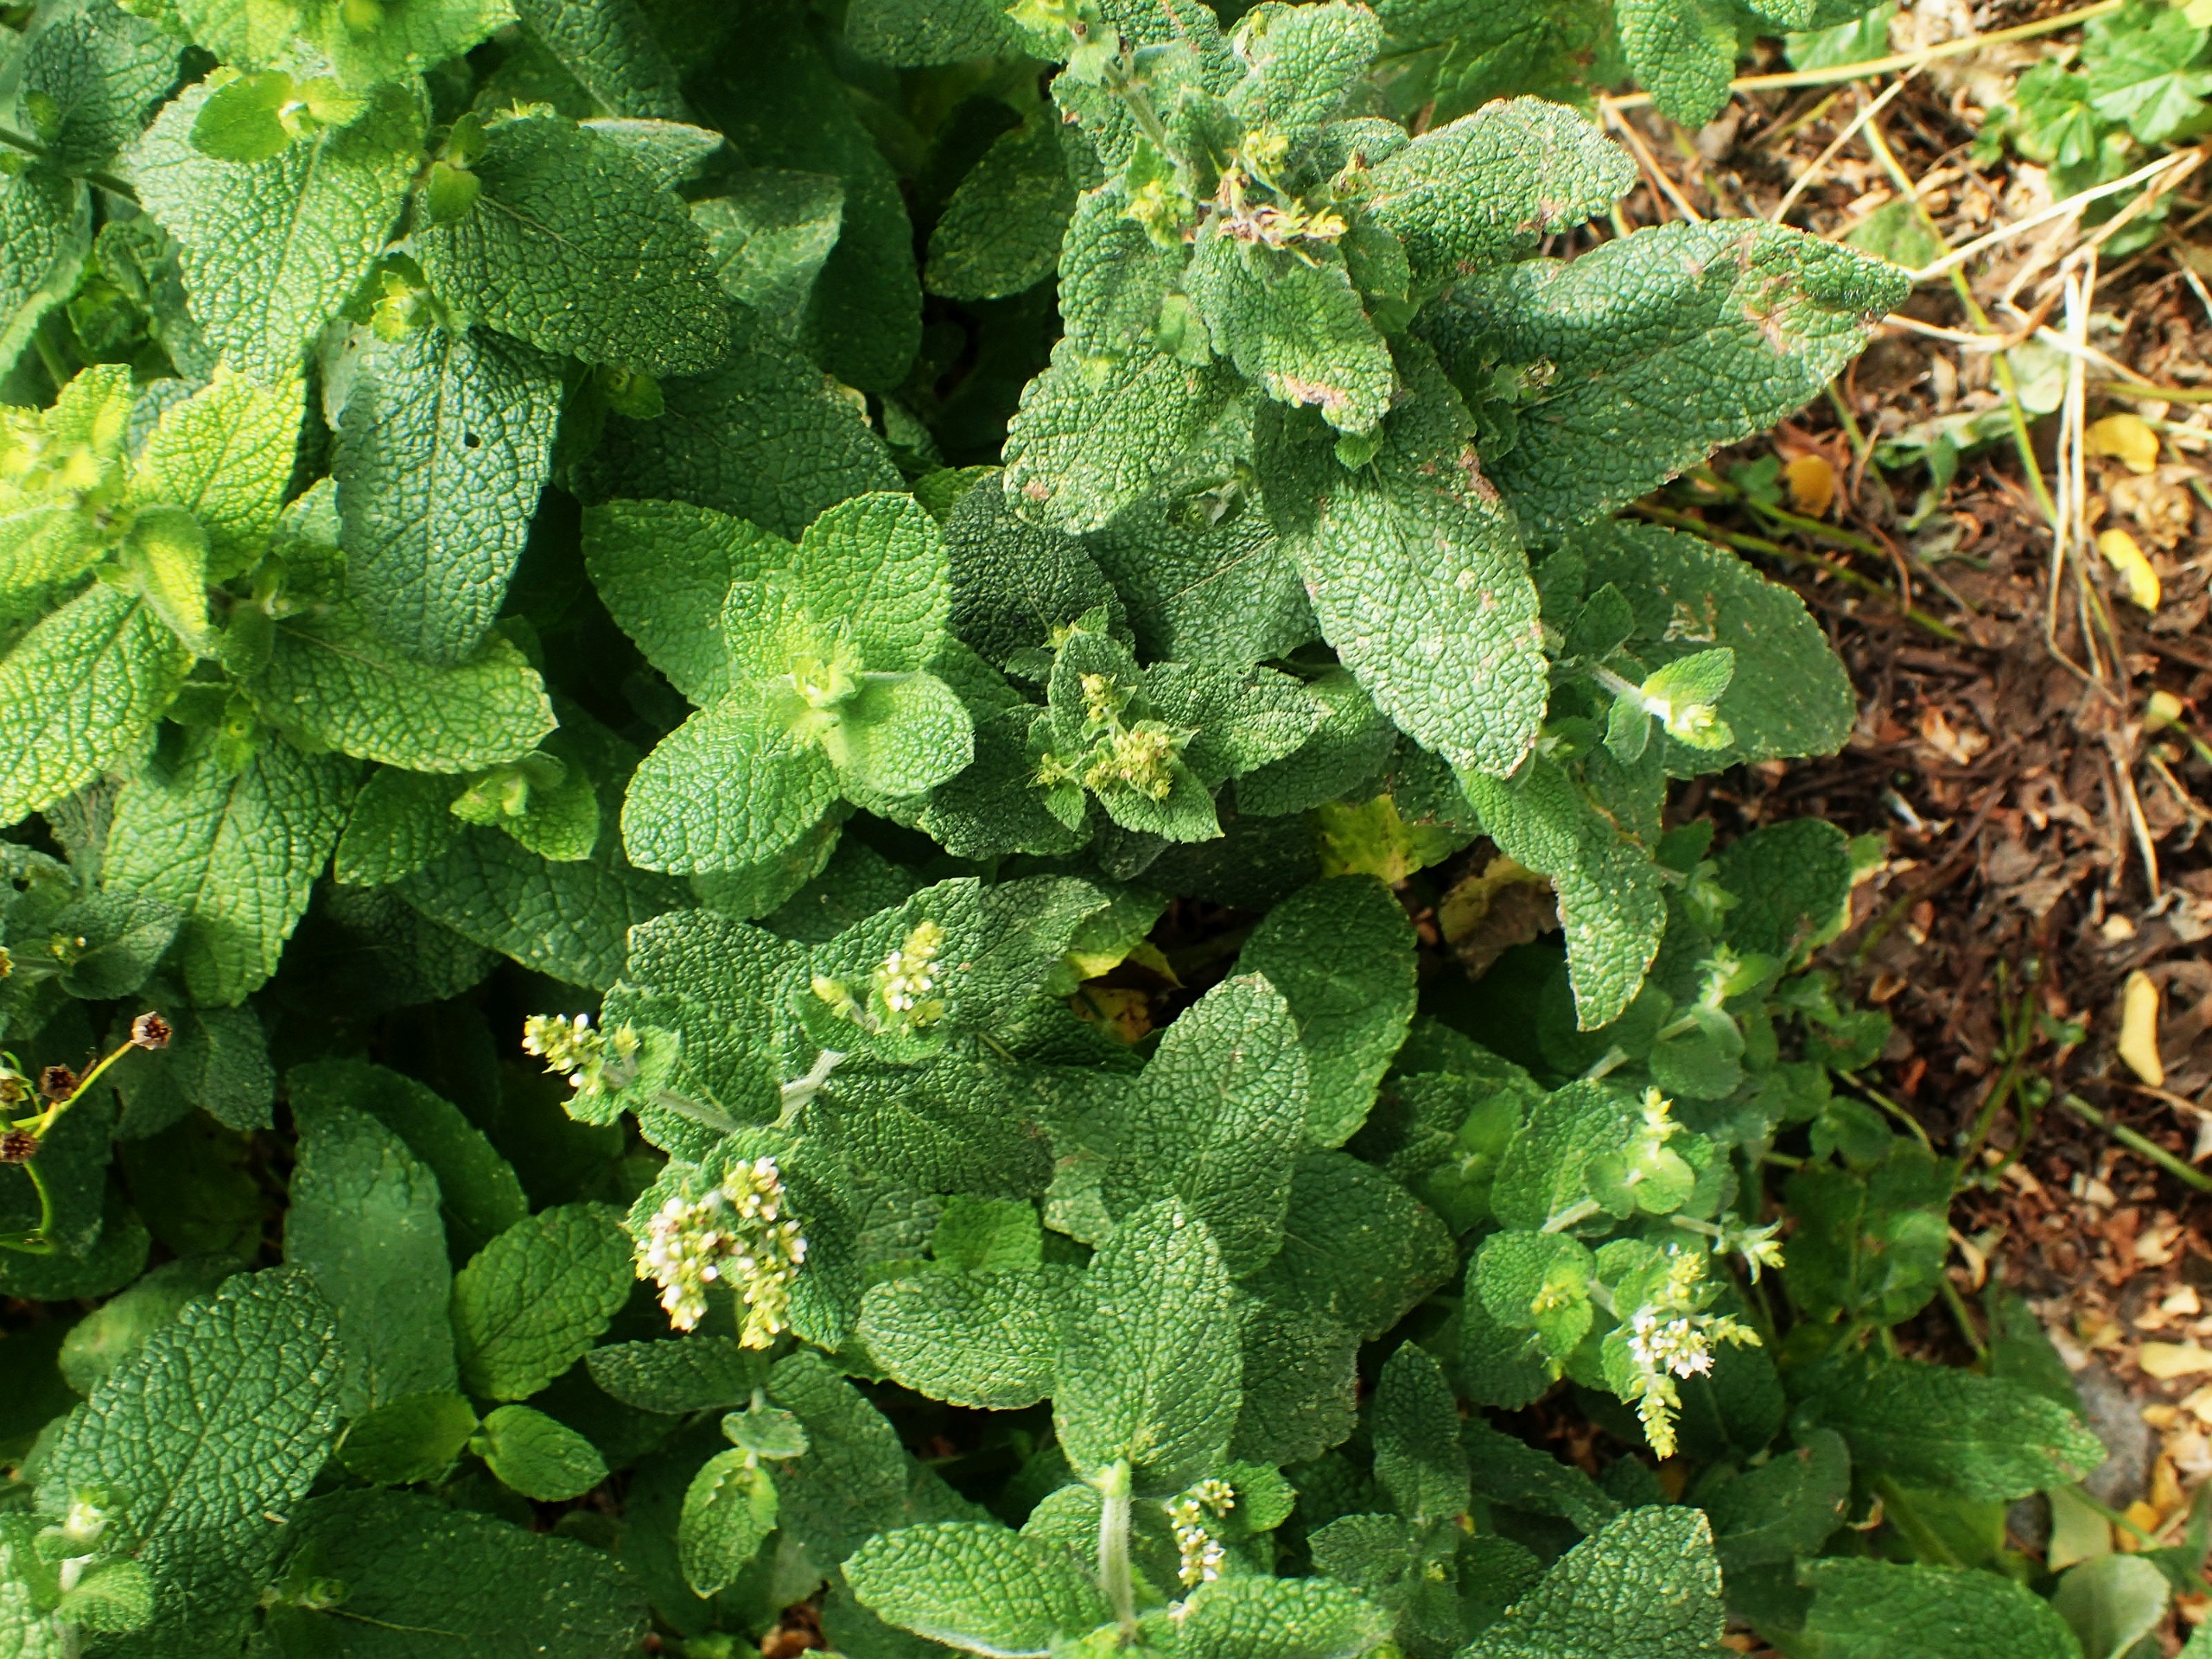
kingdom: Plantae
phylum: Tracheophyta
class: Magnoliopsida
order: Lamiales
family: Lamiaceae
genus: Mentha
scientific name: Mentha villosa
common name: Æble-mynte
